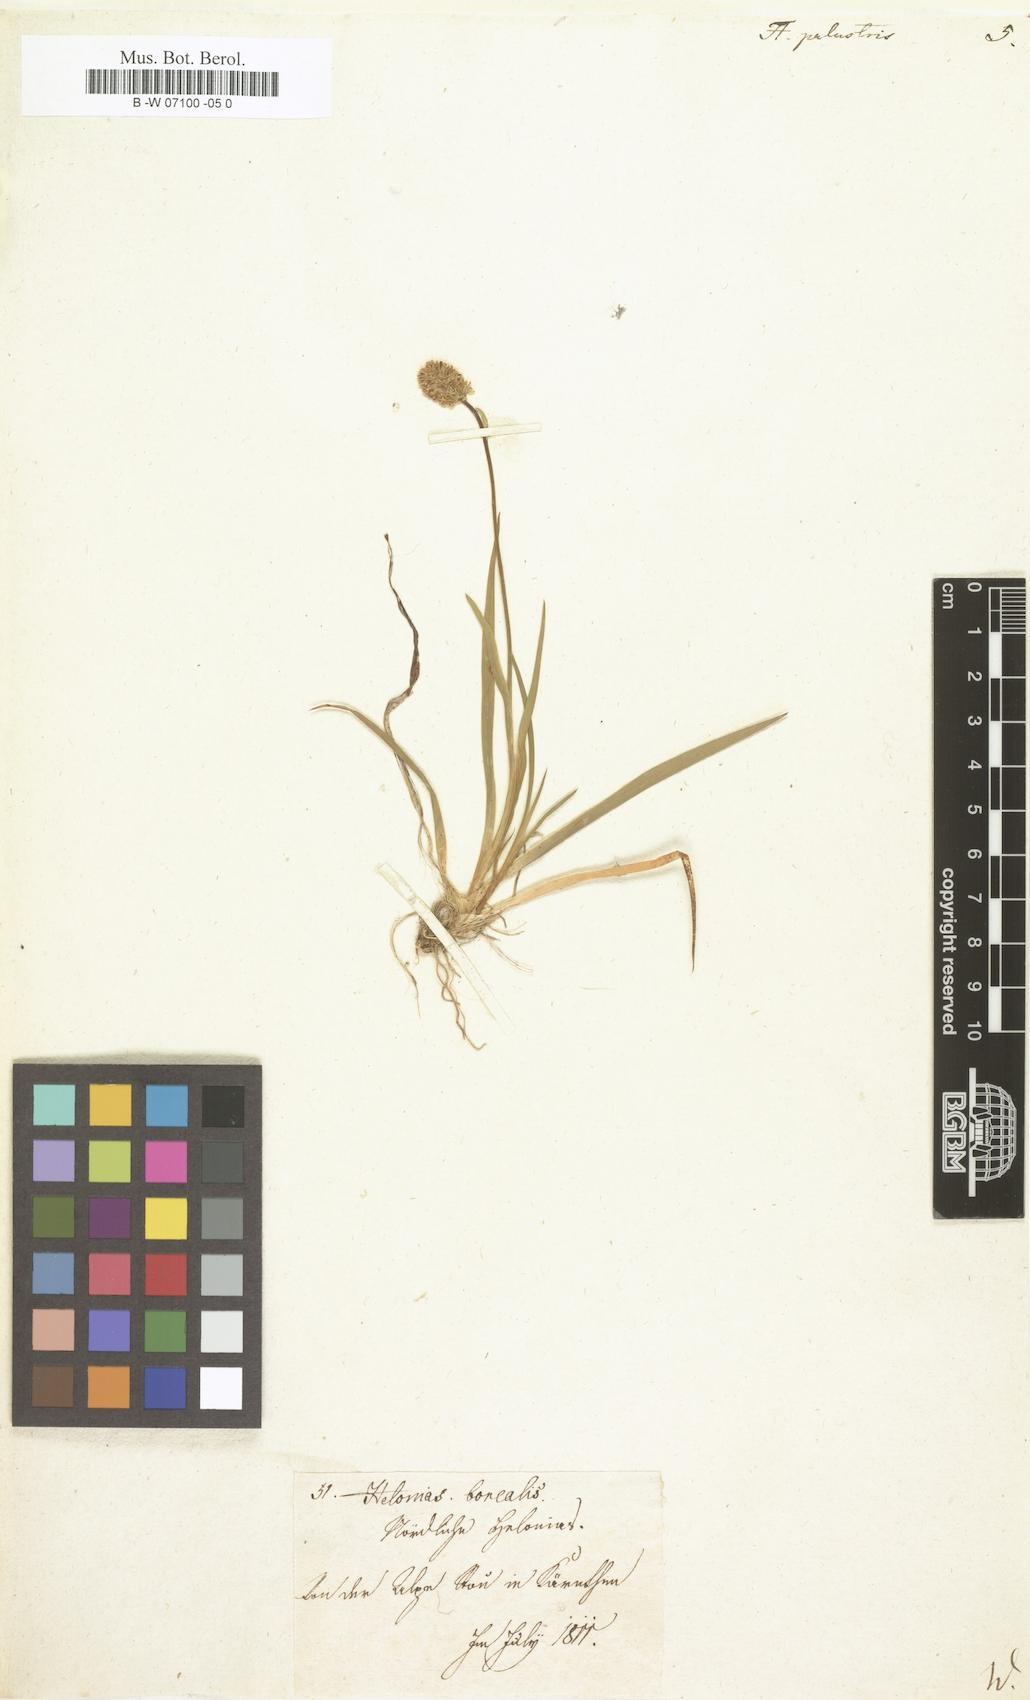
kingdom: Plantae
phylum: Tracheophyta
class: Liliopsida
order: Liliales
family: Melanthiaceae
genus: Tofieldia
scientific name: Tofieldia palustris
